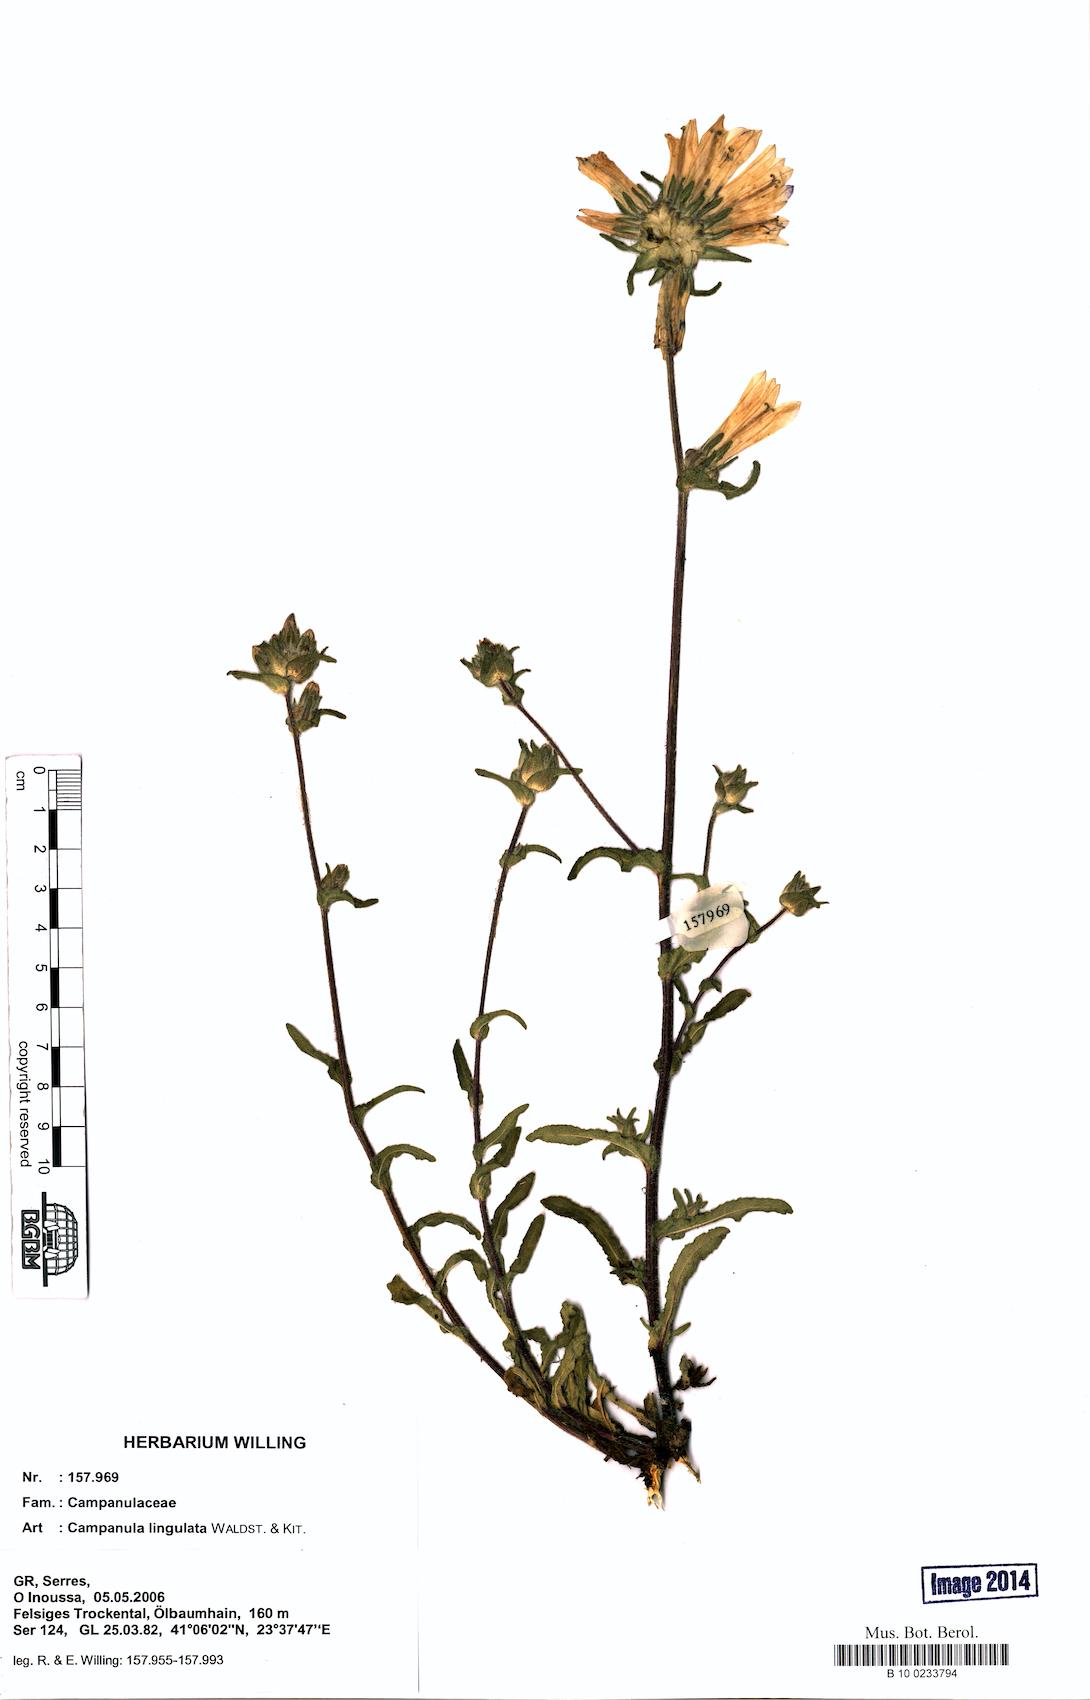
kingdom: Plantae
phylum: Tracheophyta
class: Magnoliopsida
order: Asterales
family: Campanulaceae
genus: Campanula
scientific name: Campanula lingulata
